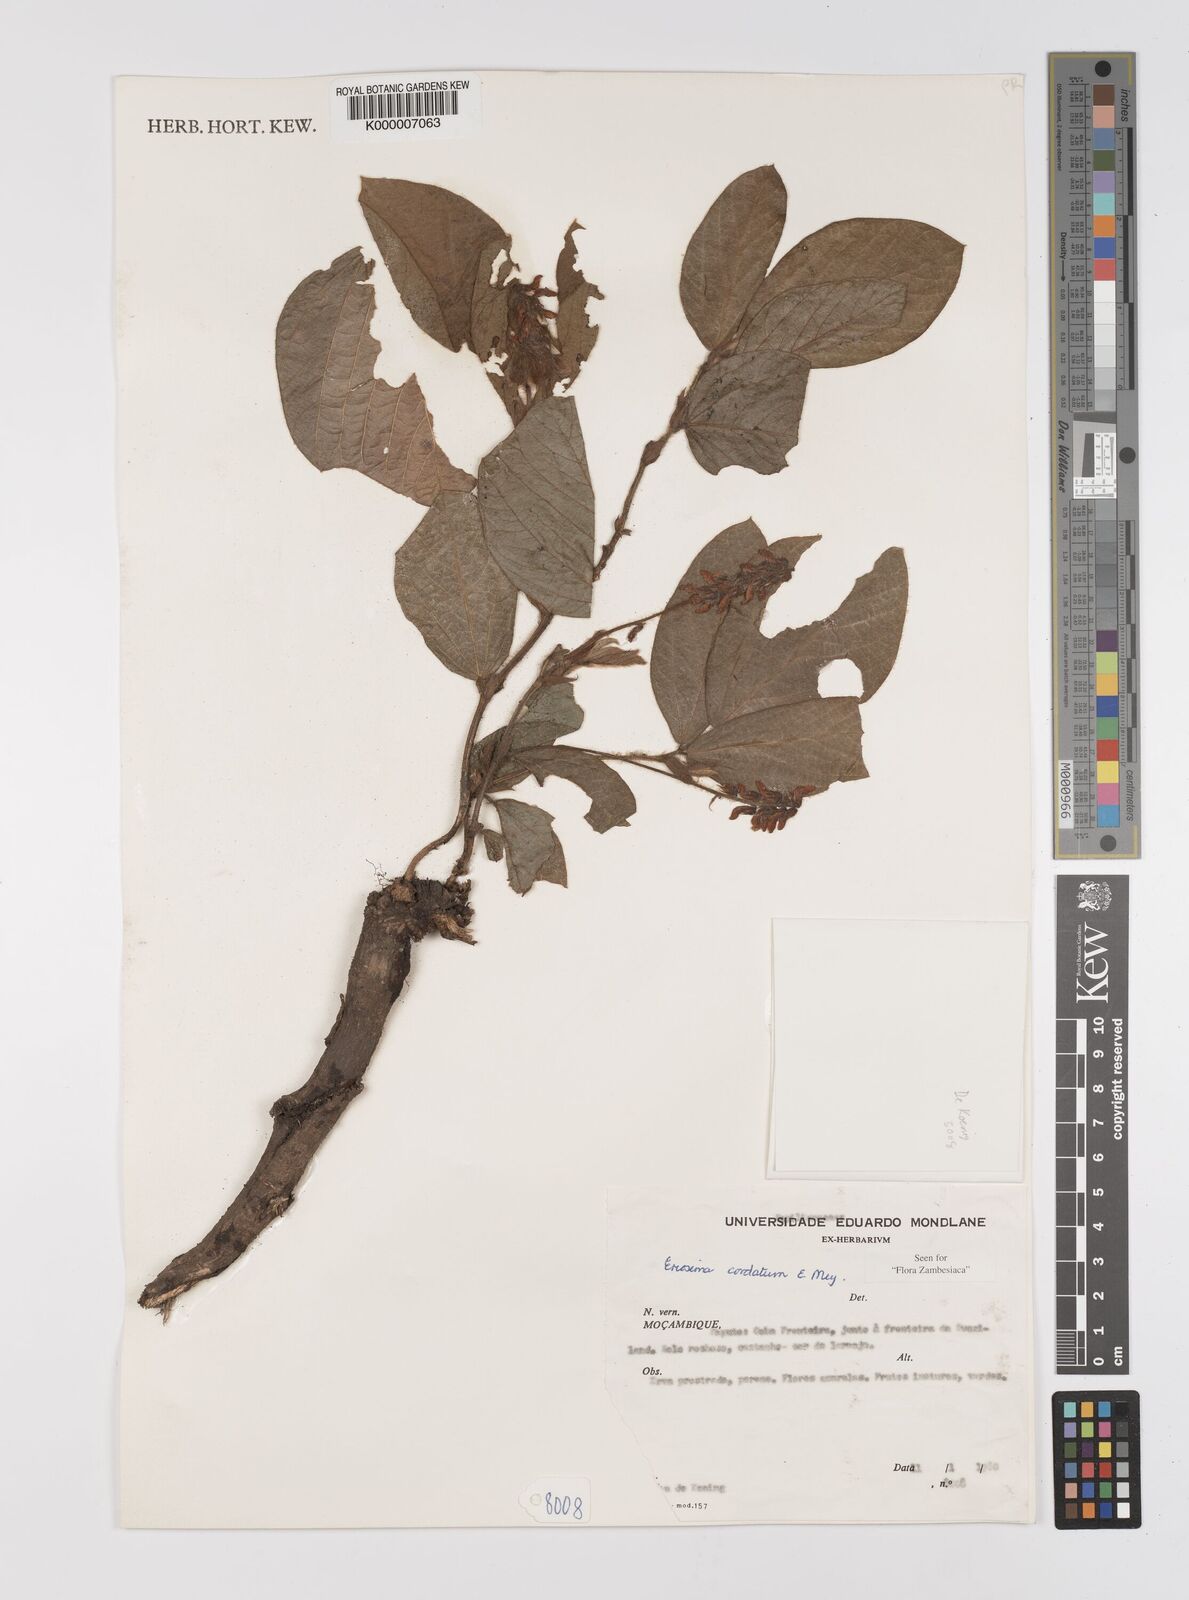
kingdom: Plantae
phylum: Tracheophyta
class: Magnoliopsida
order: Fabales
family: Fabaceae
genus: Eriosema
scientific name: Eriosema cordatum
